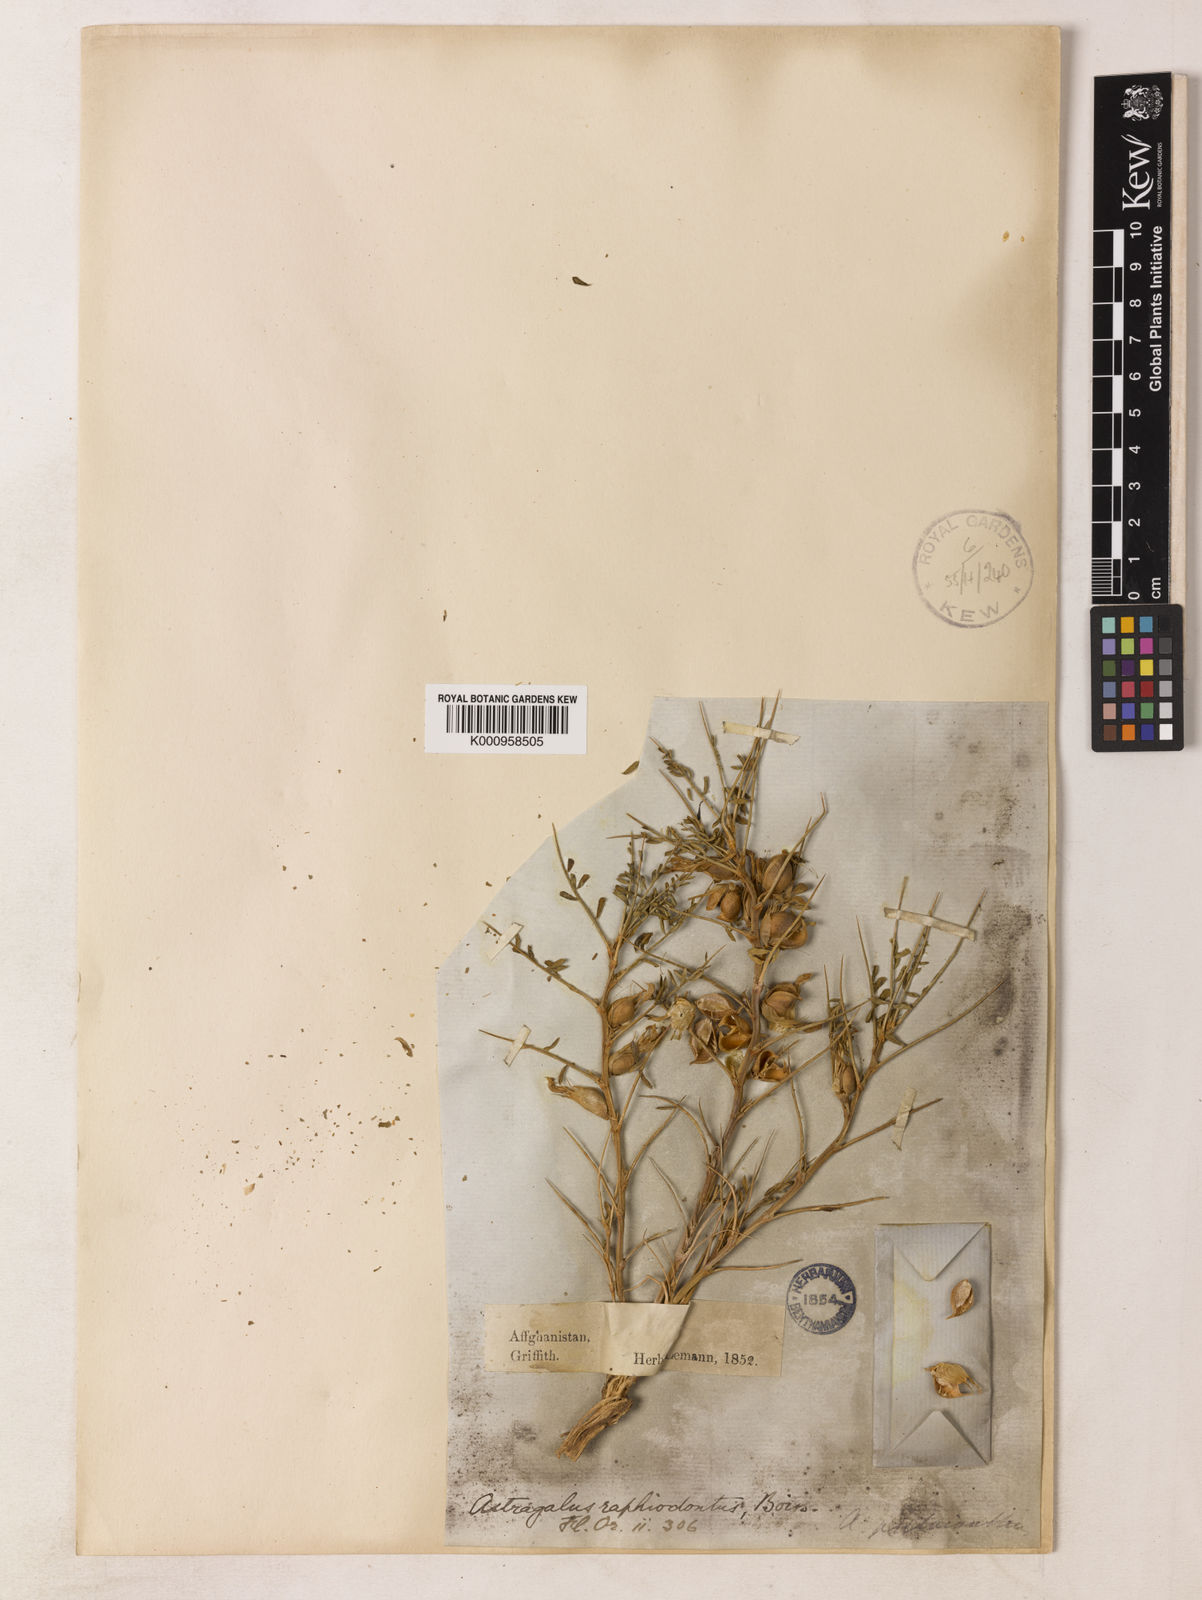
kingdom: Plantae
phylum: Tracheophyta
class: Magnoliopsida
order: Fabales
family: Fabaceae
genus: Astragalus
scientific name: Astragalus raphiodontus
